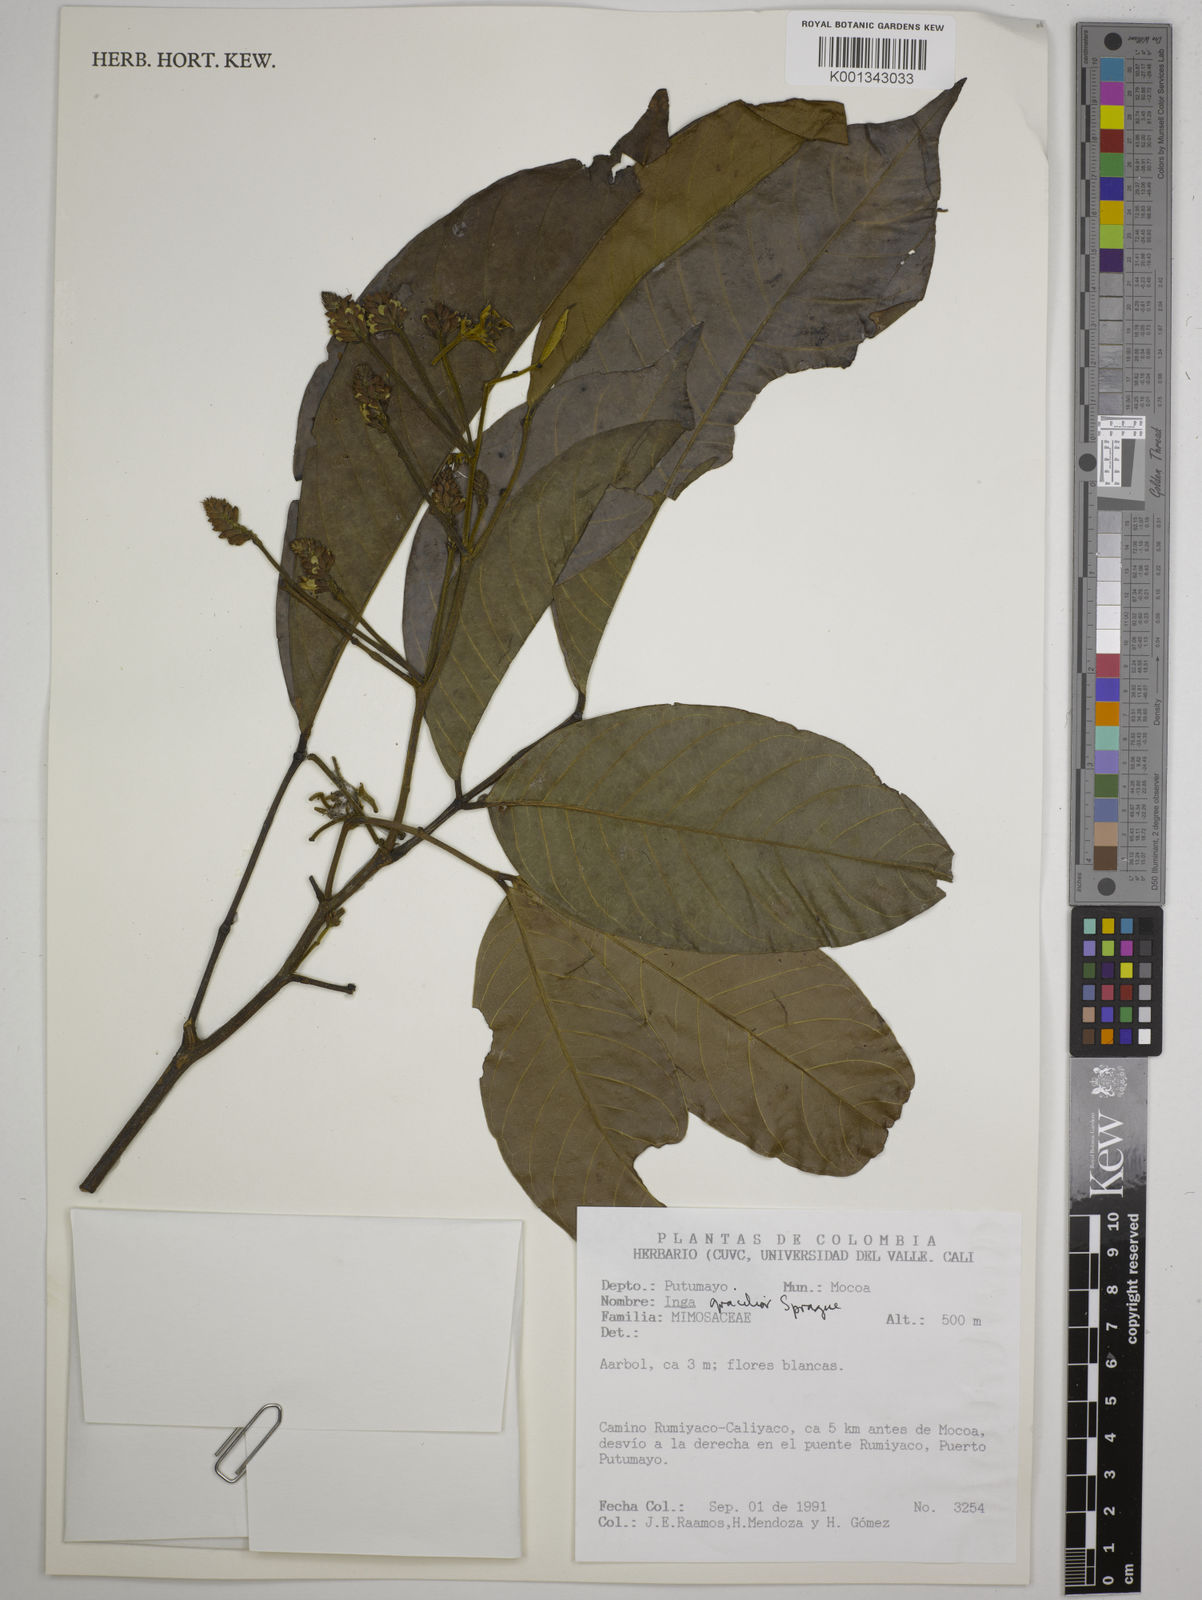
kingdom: Plantae
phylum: Tracheophyta
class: Magnoliopsida
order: Fabales
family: Fabaceae
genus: Inga
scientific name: Inga gracilior
